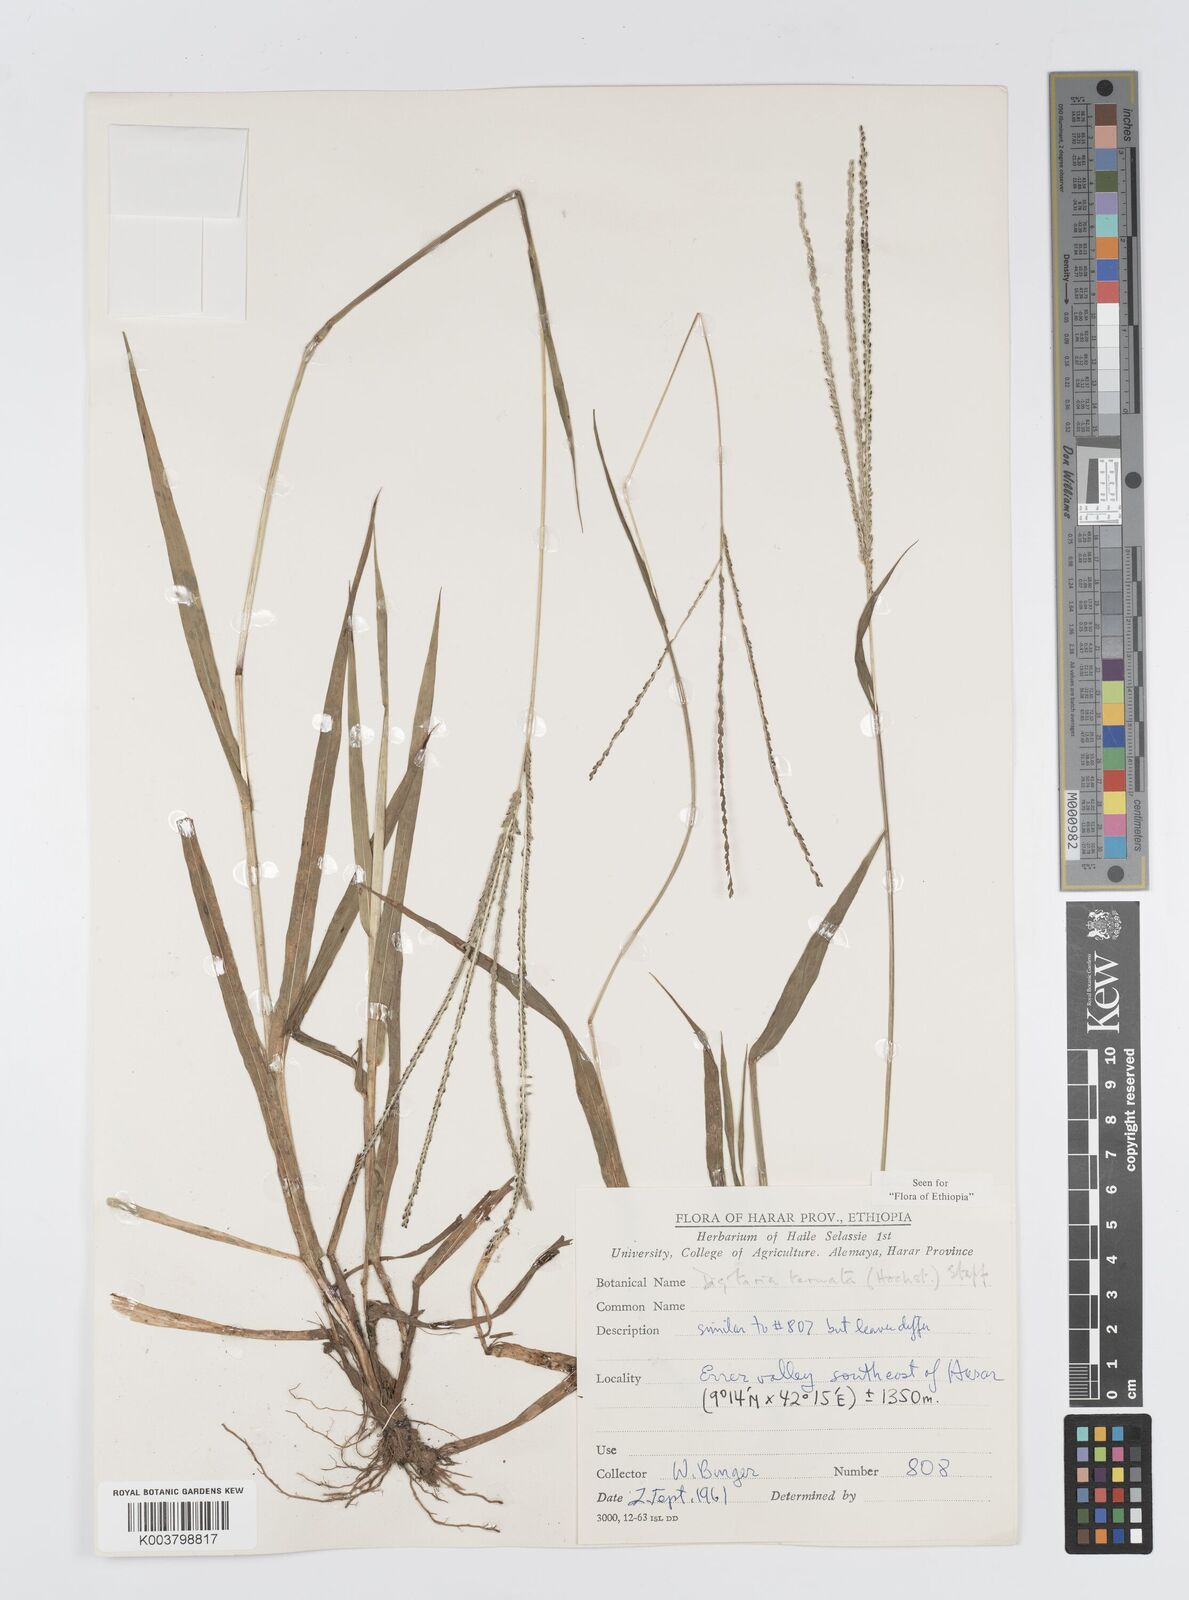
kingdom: Plantae
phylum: Tracheophyta
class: Liliopsida
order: Poales
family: Poaceae
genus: Digitaria
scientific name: Digitaria ternata
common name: Blackseed crabgrass
